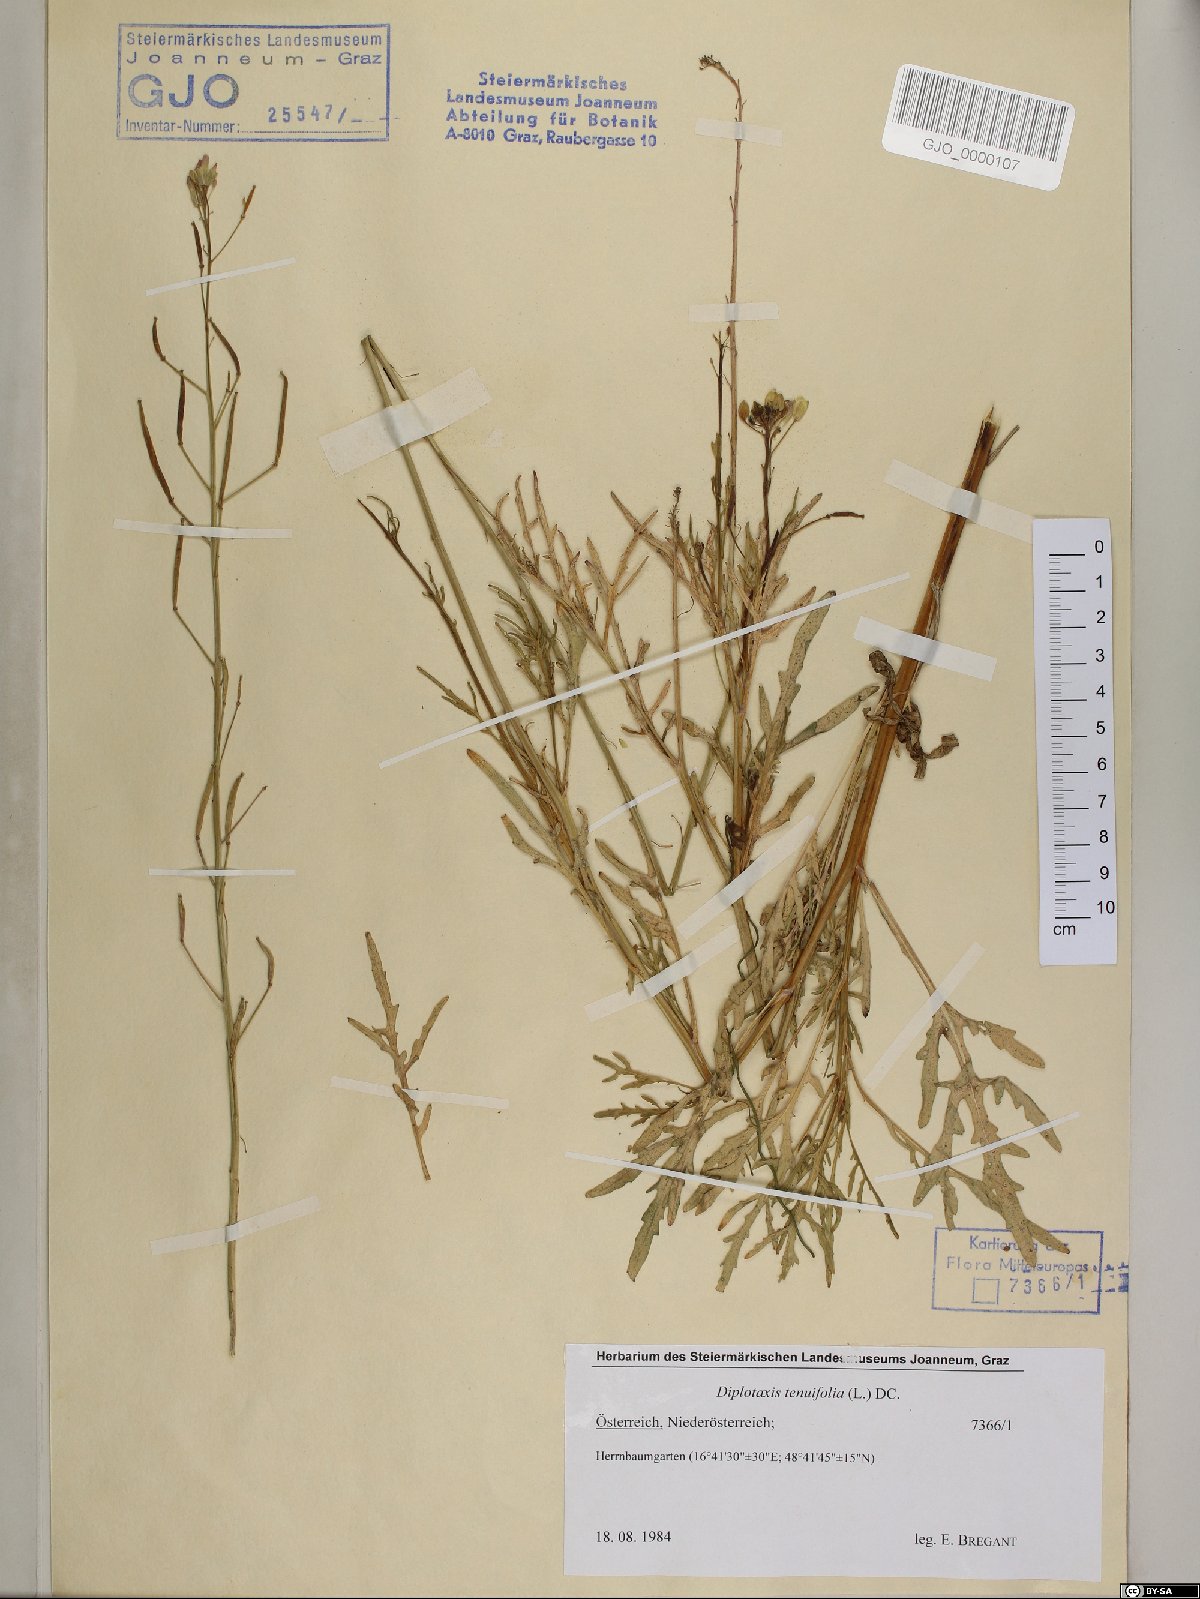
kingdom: Plantae
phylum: Tracheophyta
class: Magnoliopsida
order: Brassicales
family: Brassicaceae
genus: Diplotaxis
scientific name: Diplotaxis tenuifolia
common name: Perennial wall-rocket
